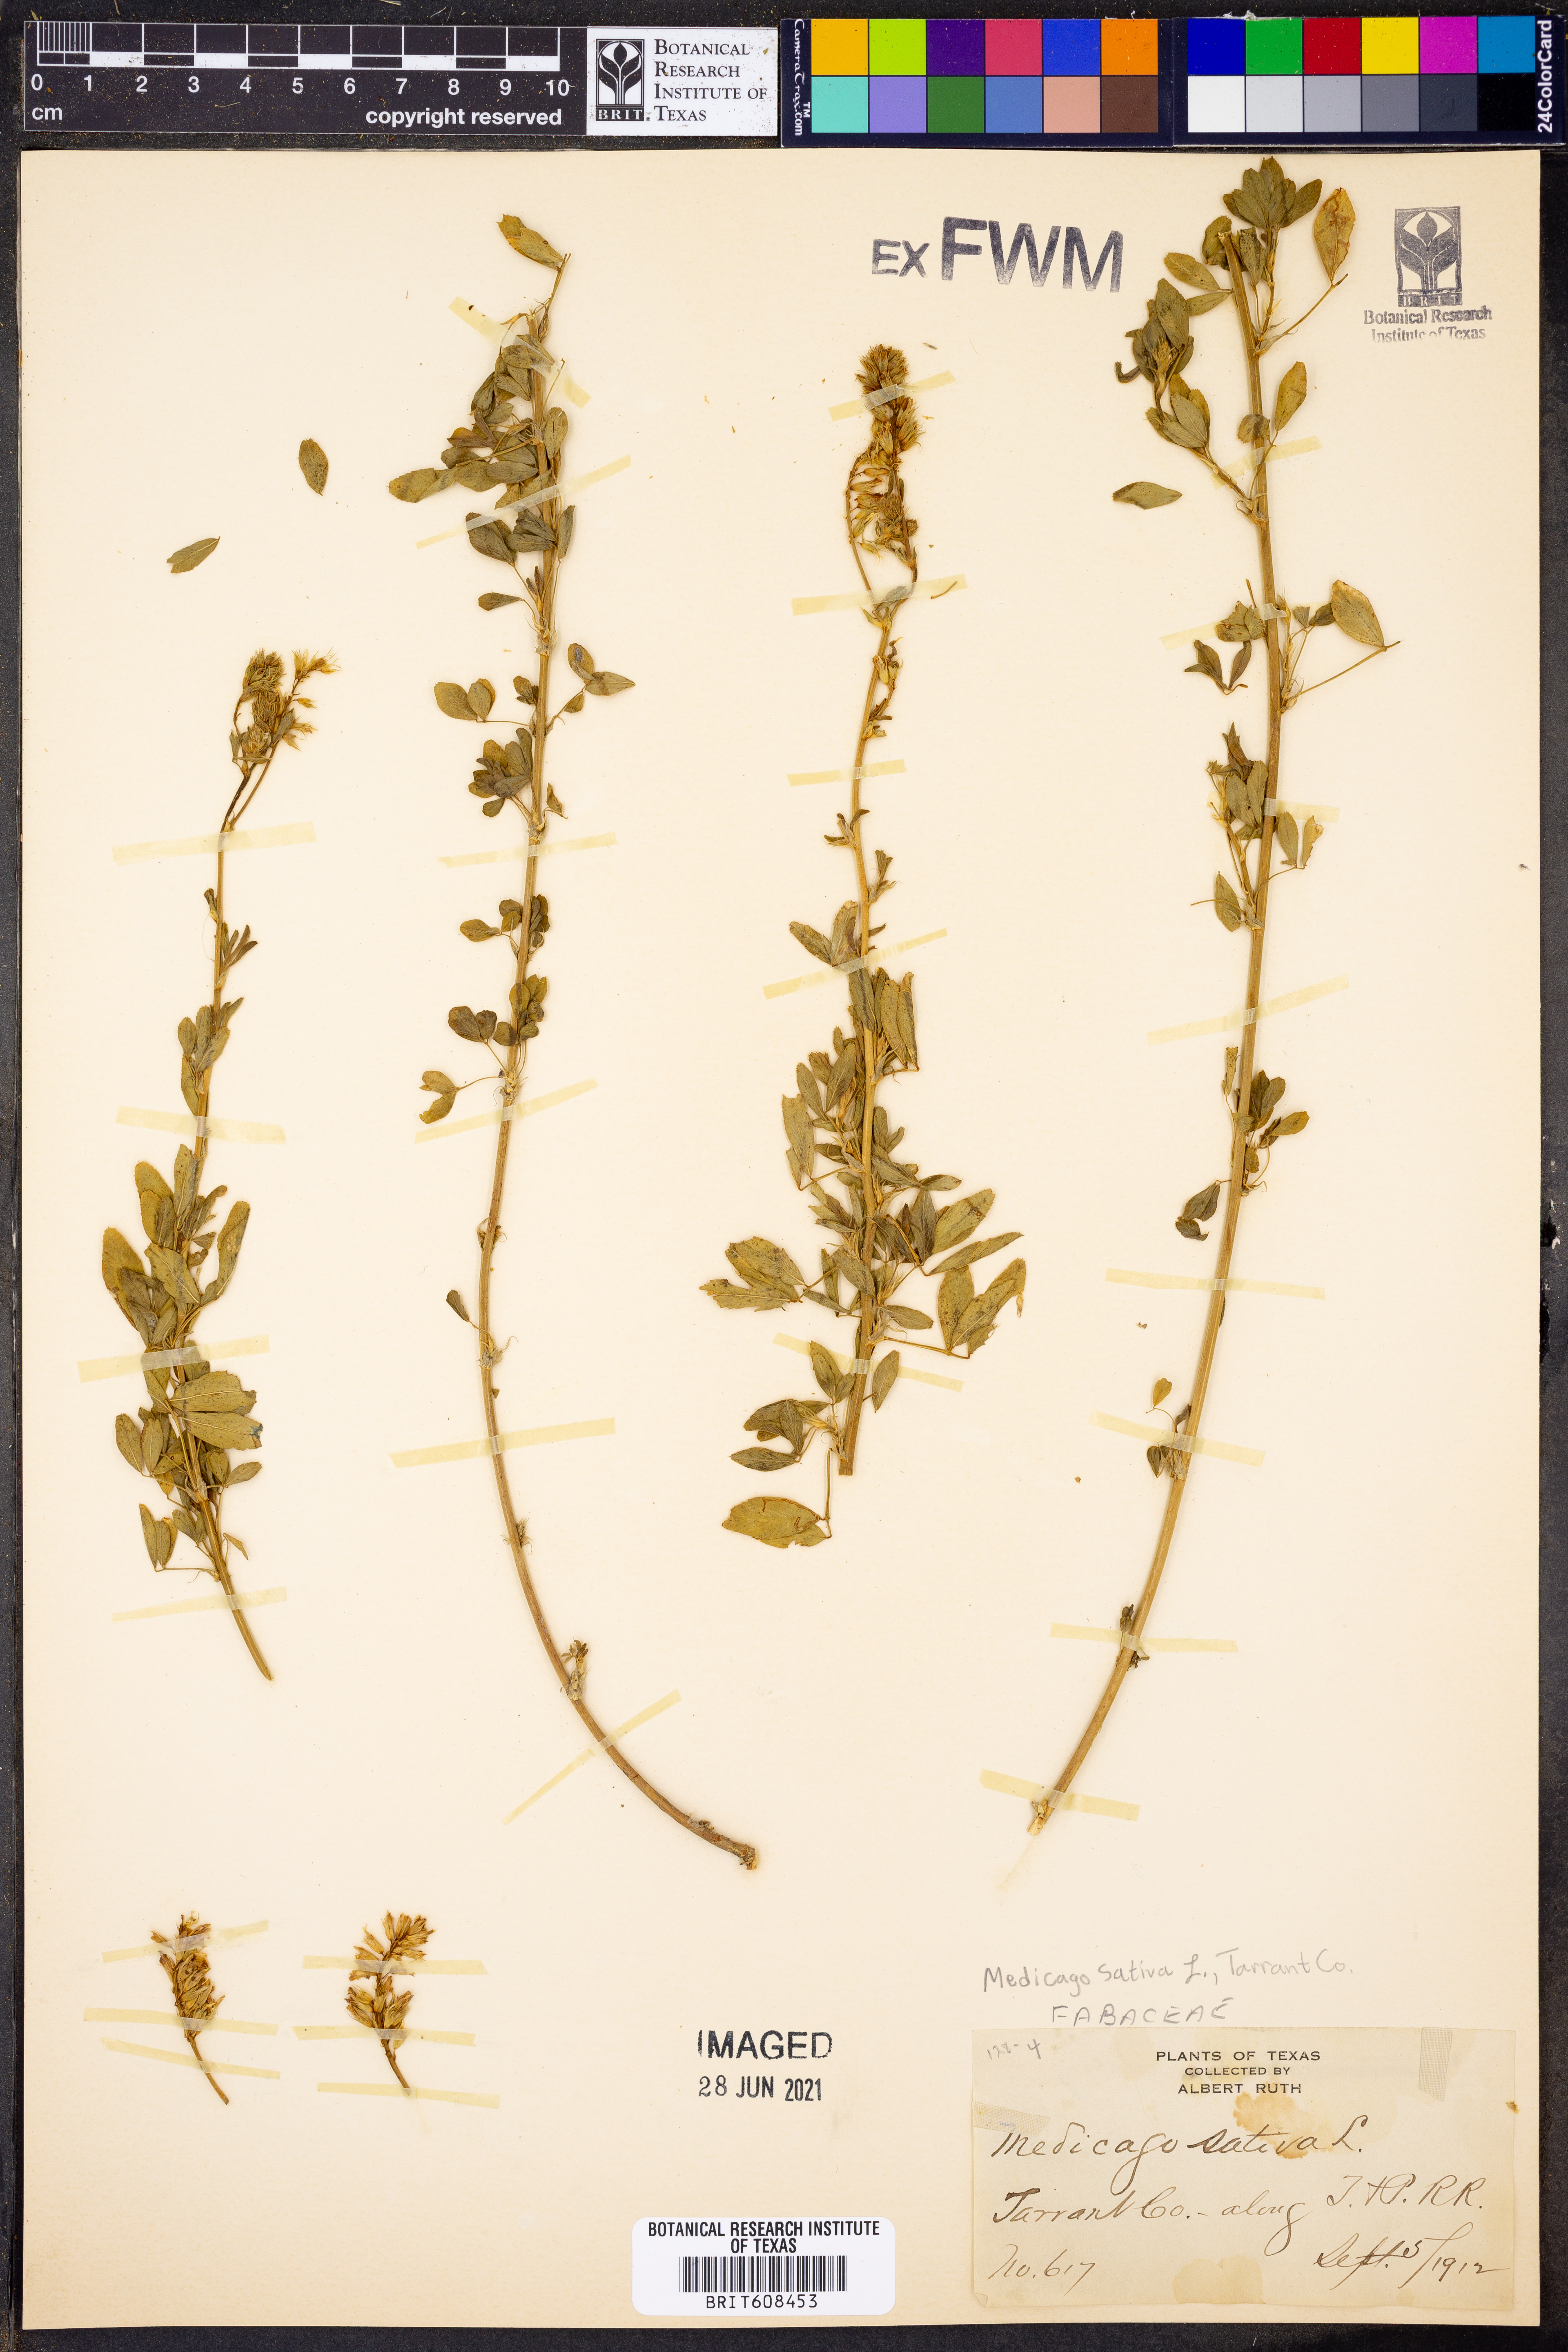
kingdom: Plantae
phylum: Tracheophyta
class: Magnoliopsida
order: Fabales
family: Fabaceae
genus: Medicago
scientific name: Medicago sativa
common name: Alfalfa
